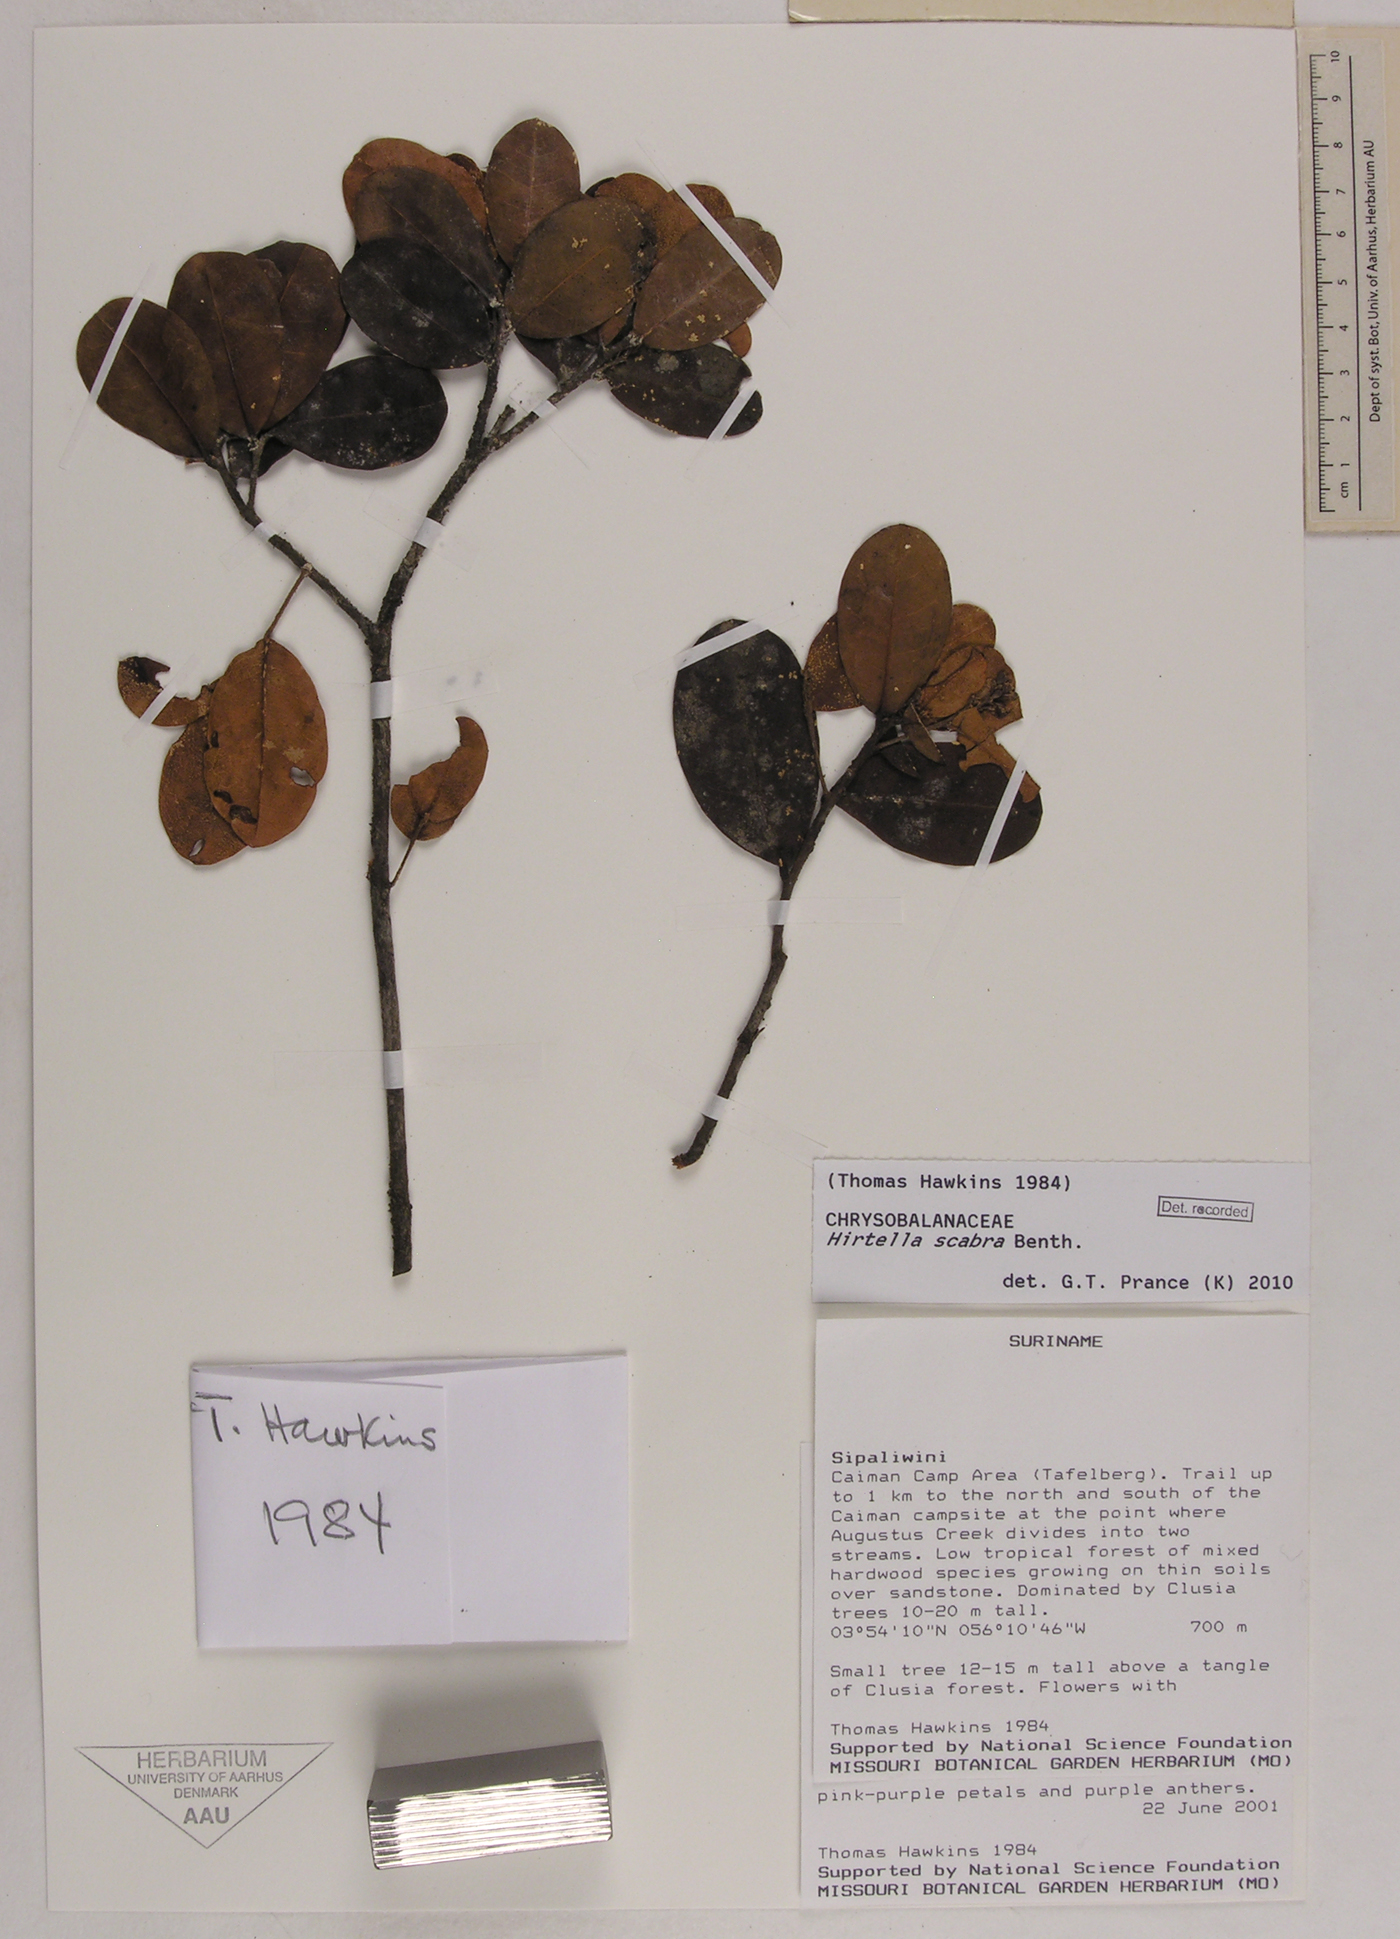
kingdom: Plantae
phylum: Tracheophyta
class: Magnoliopsida
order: Malpighiales
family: Chrysobalanaceae
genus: Hirtella
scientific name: Hirtella scabra
